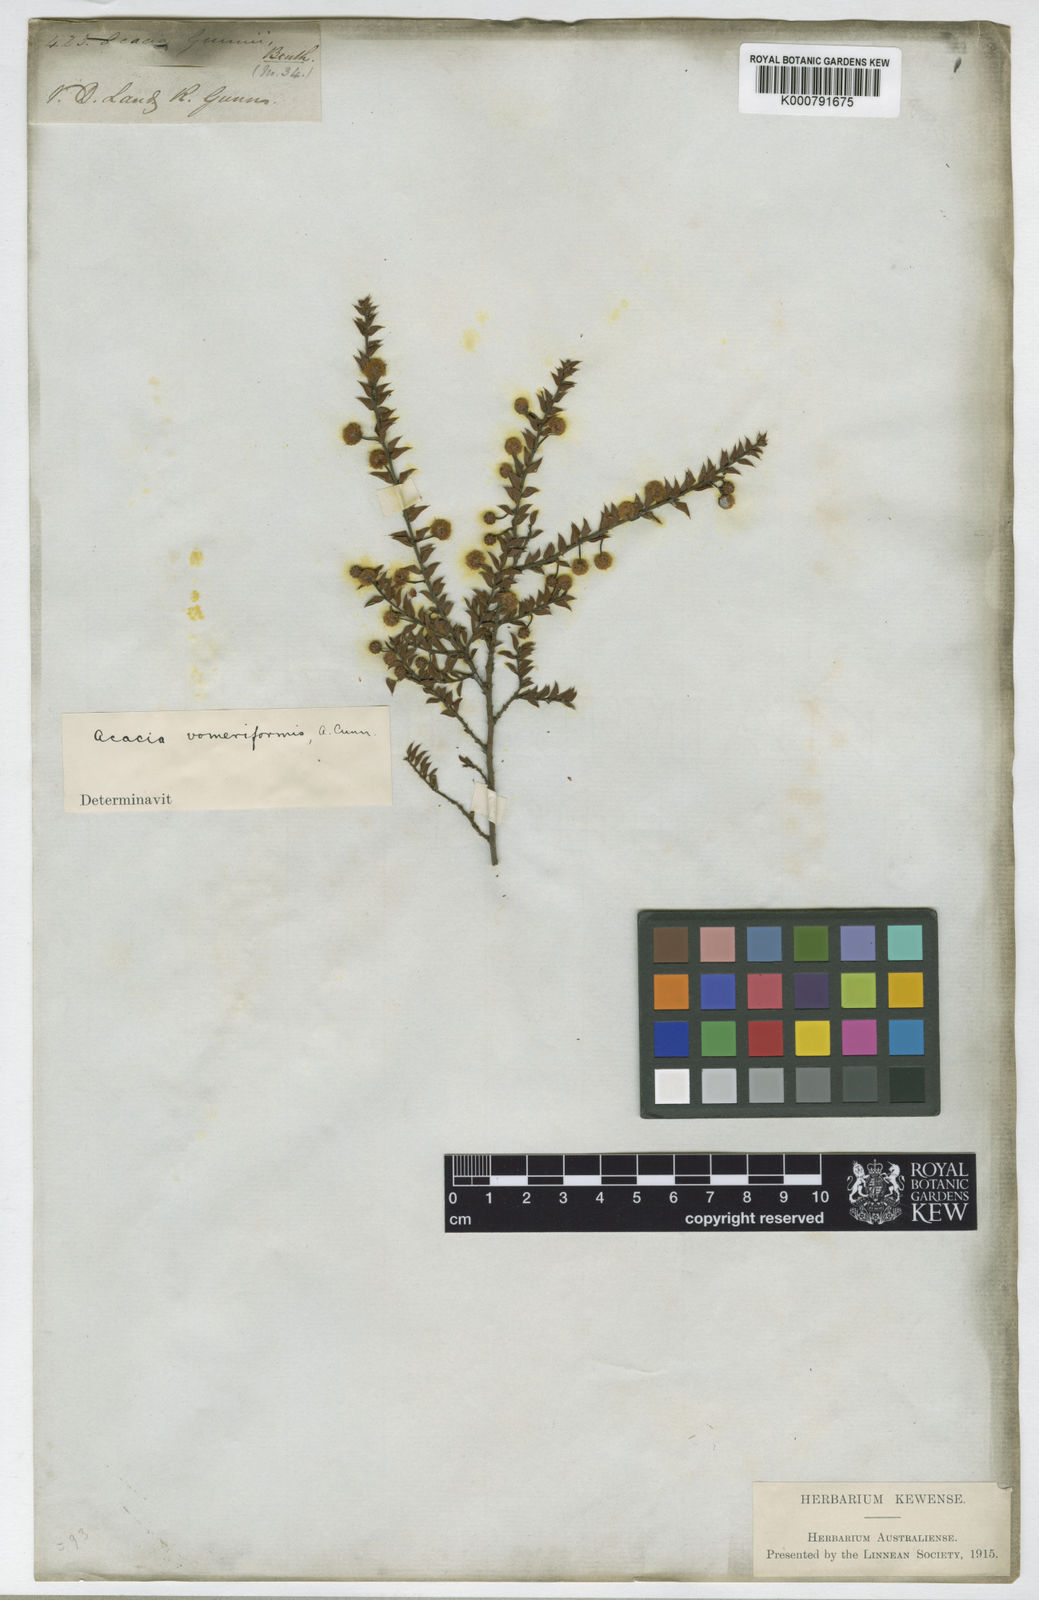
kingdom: Plantae
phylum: Tracheophyta
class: Magnoliopsida
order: Fabales
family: Fabaceae
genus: Acacia
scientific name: Acacia gunnii
